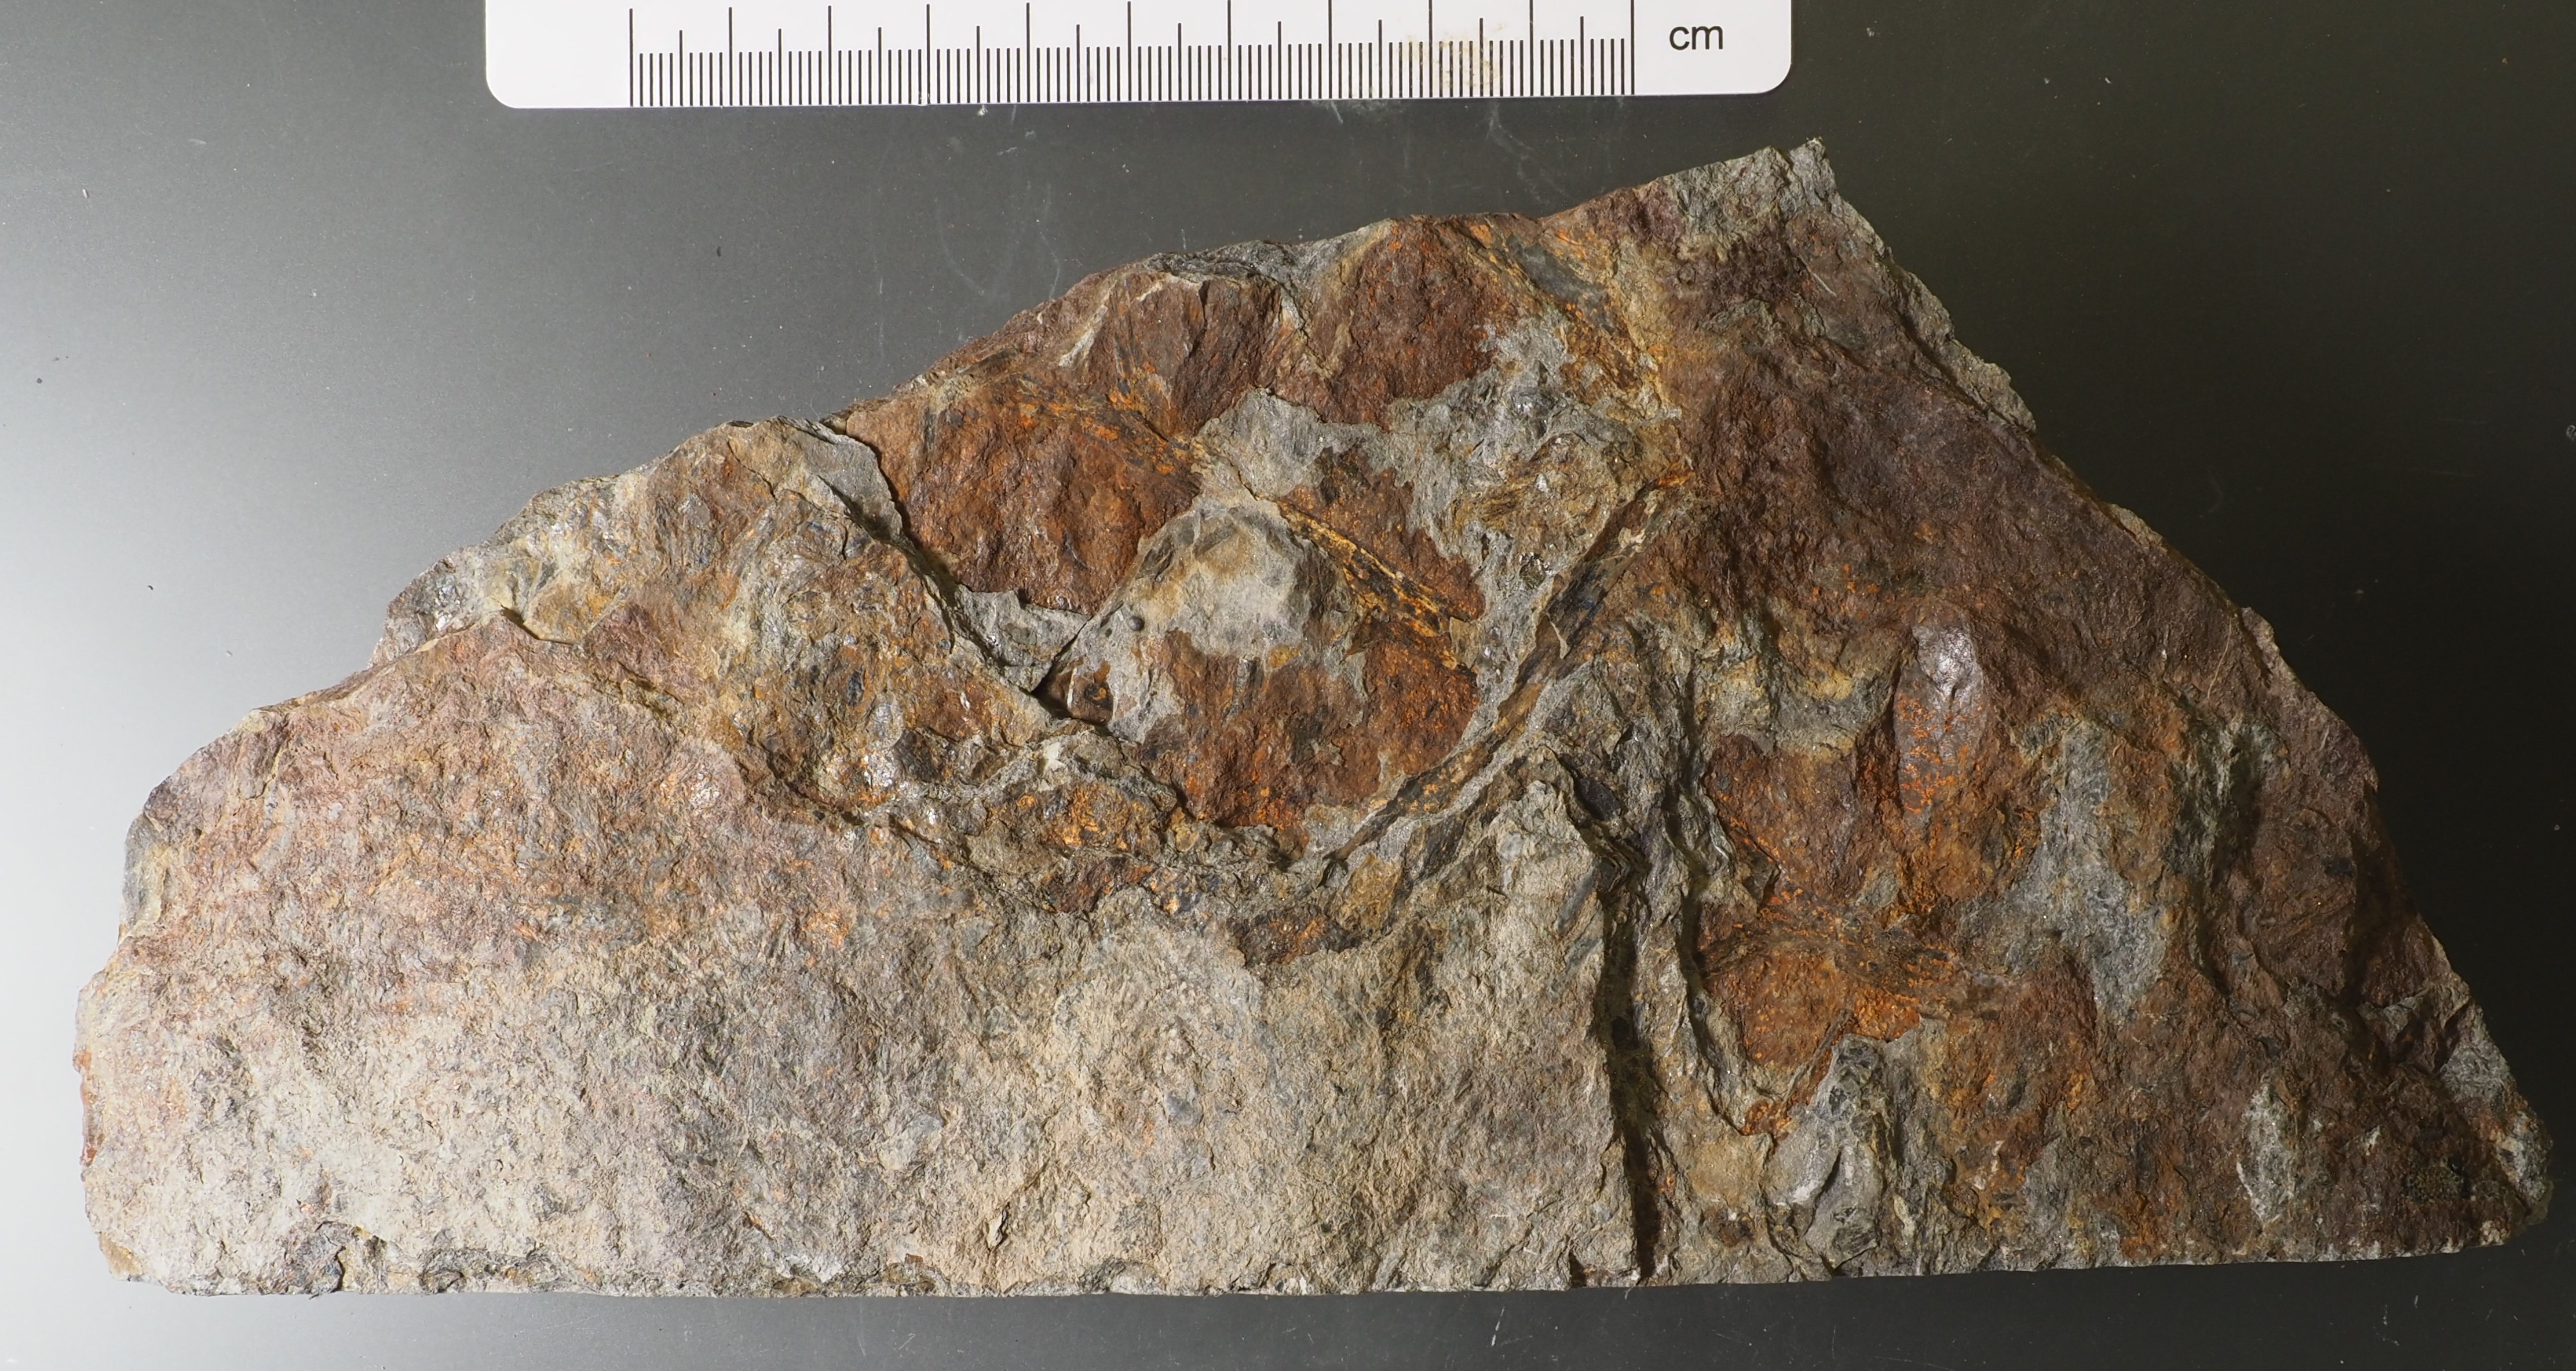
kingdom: Animalia
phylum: Chordata
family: Psammosteidae
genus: Drepanaspis
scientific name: Drepanaspis
